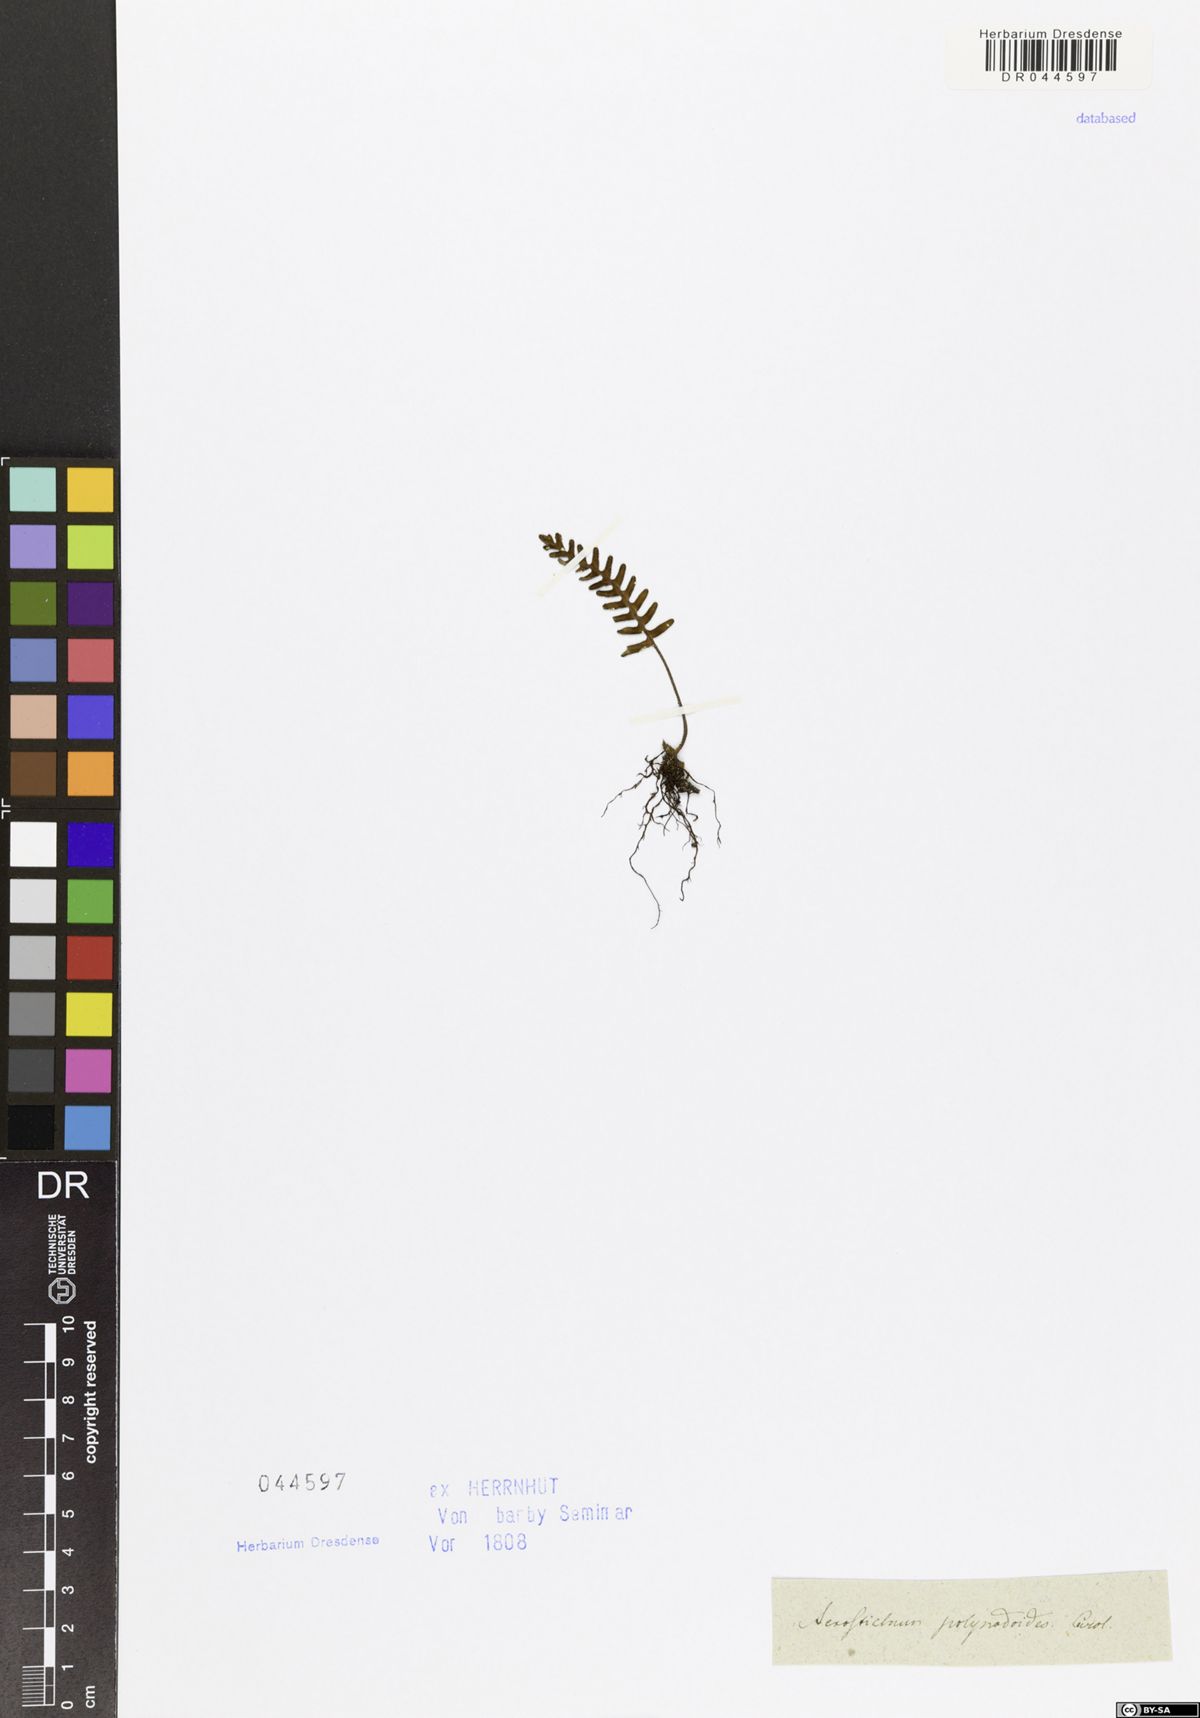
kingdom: Plantae
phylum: Tracheophyta
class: Polypodiopsida
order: Polypodiales
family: Polypodiaceae
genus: Pleopeltis
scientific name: Pleopeltis polypodioides
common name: Resurrection fern
